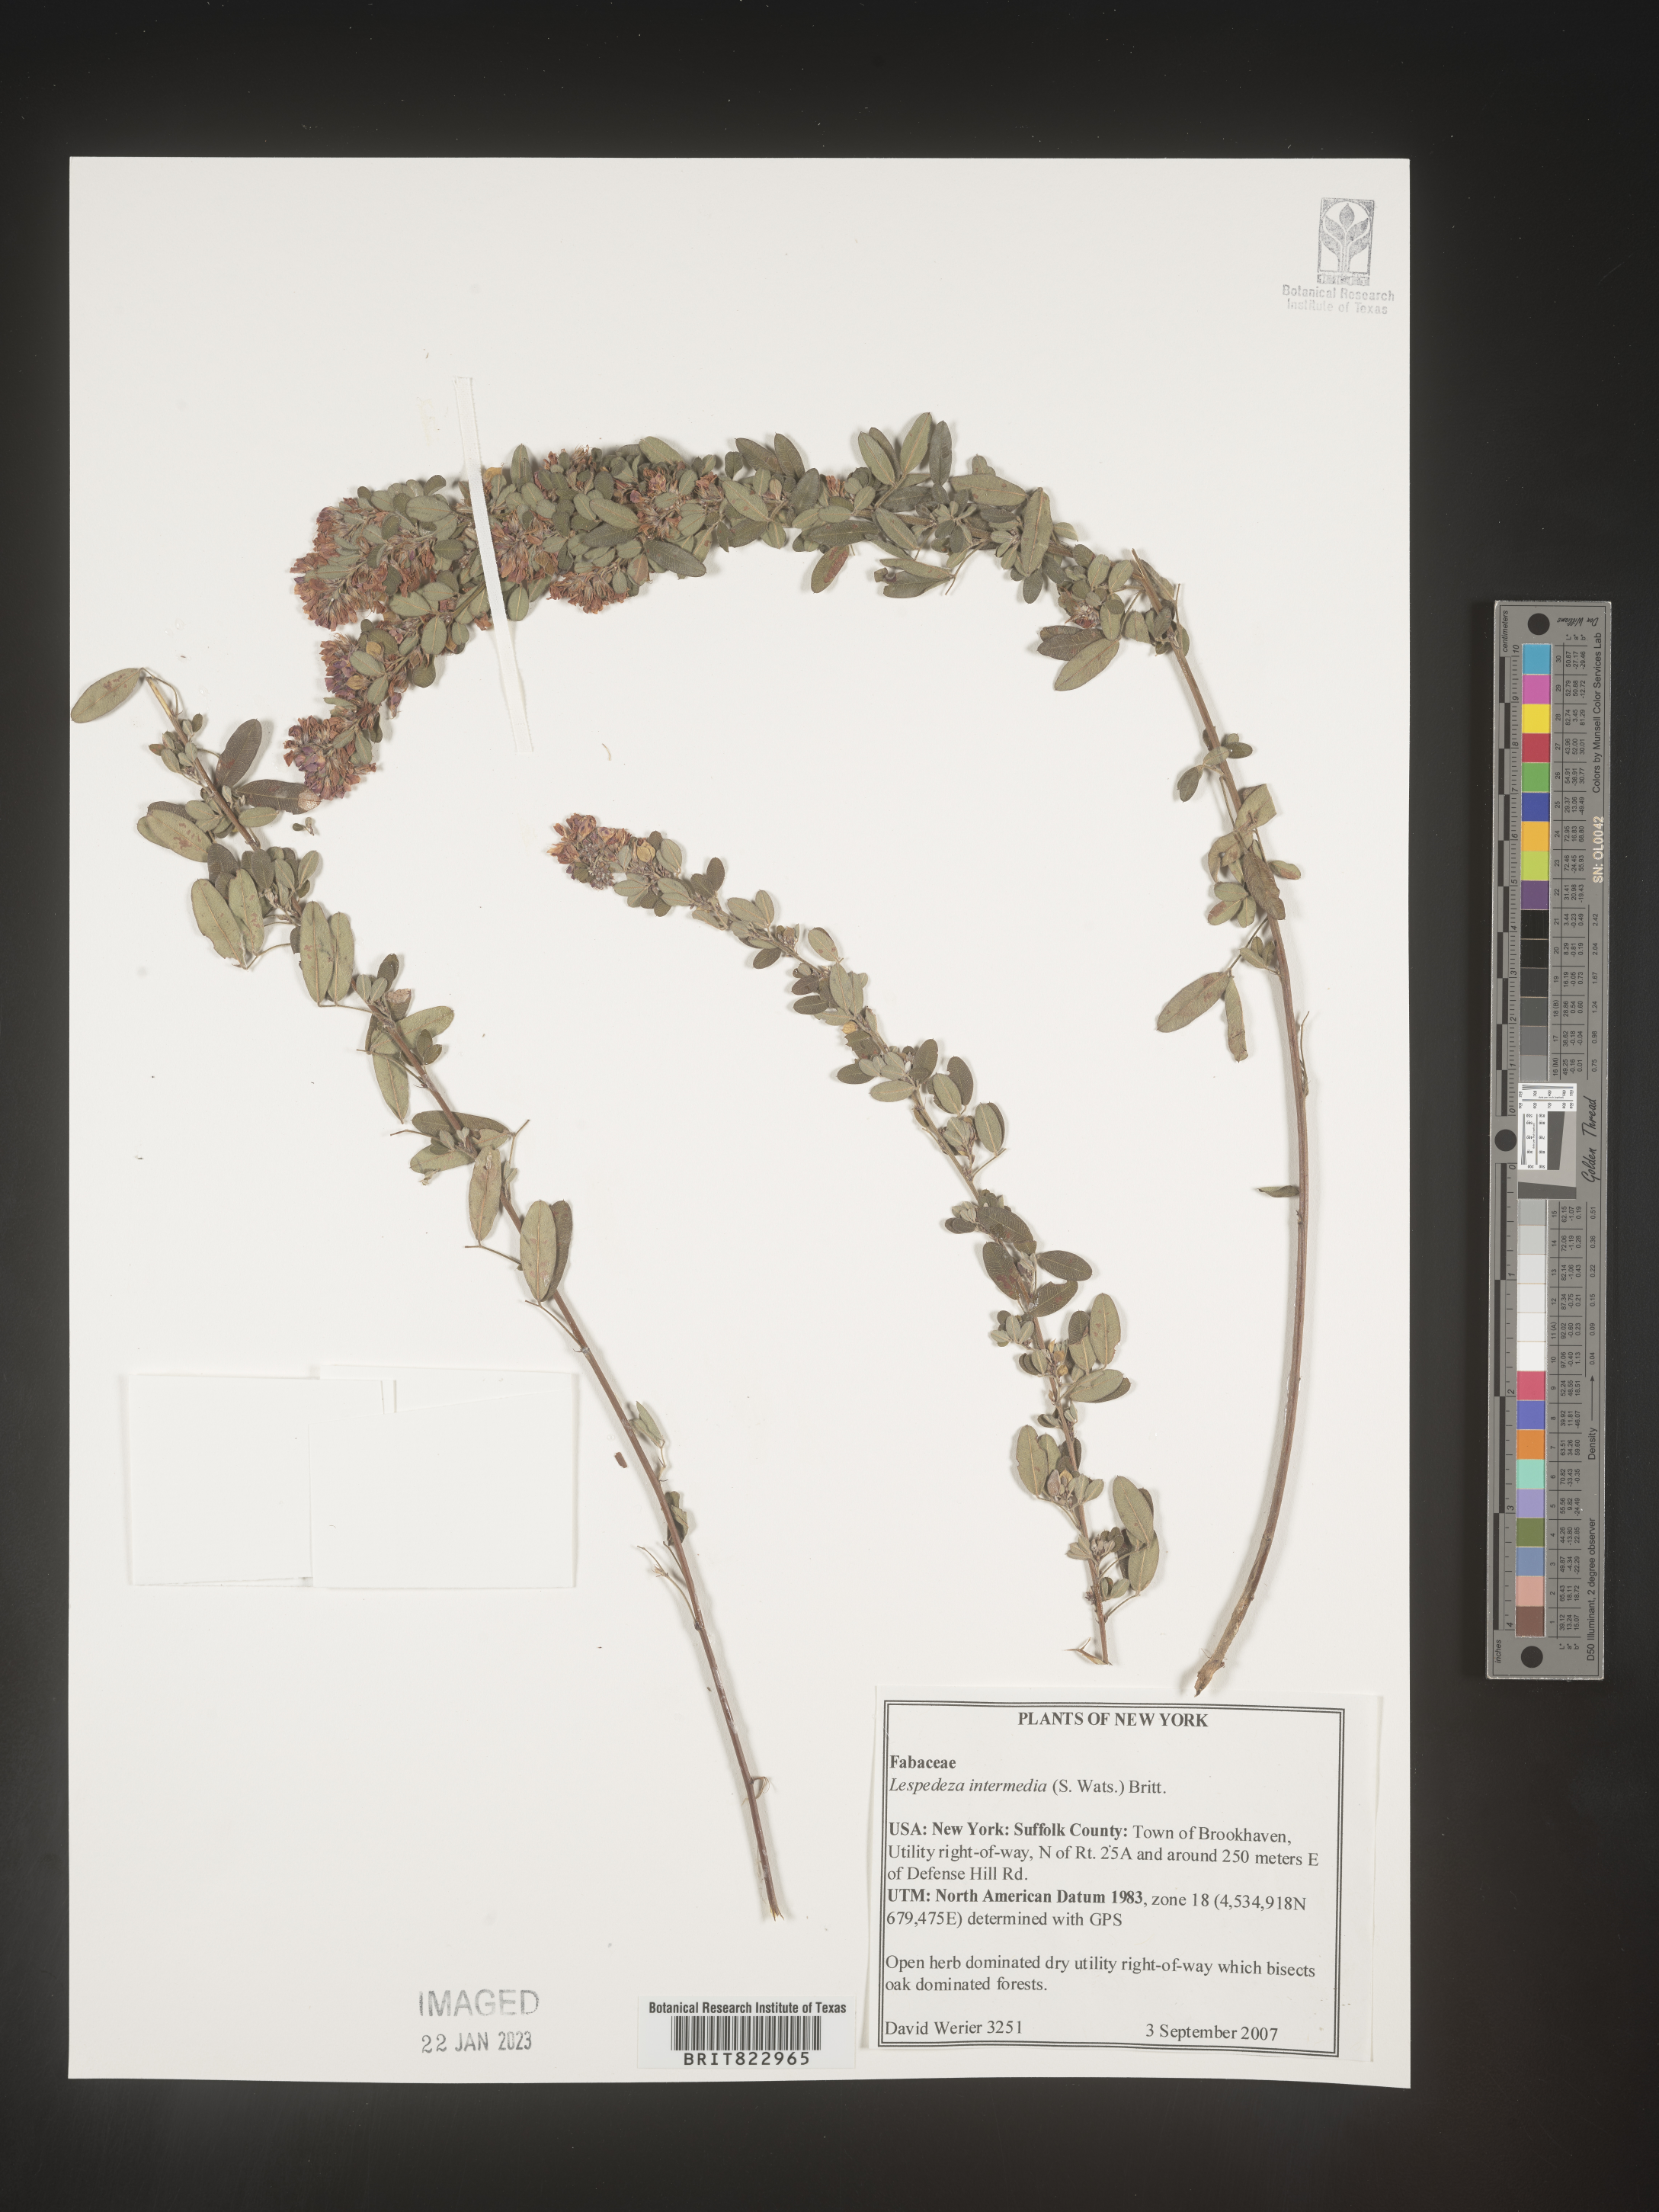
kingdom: Plantae
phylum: Tracheophyta
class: Magnoliopsida
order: Fabales
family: Fabaceae
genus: Lespedeza
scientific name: Lespedeza
